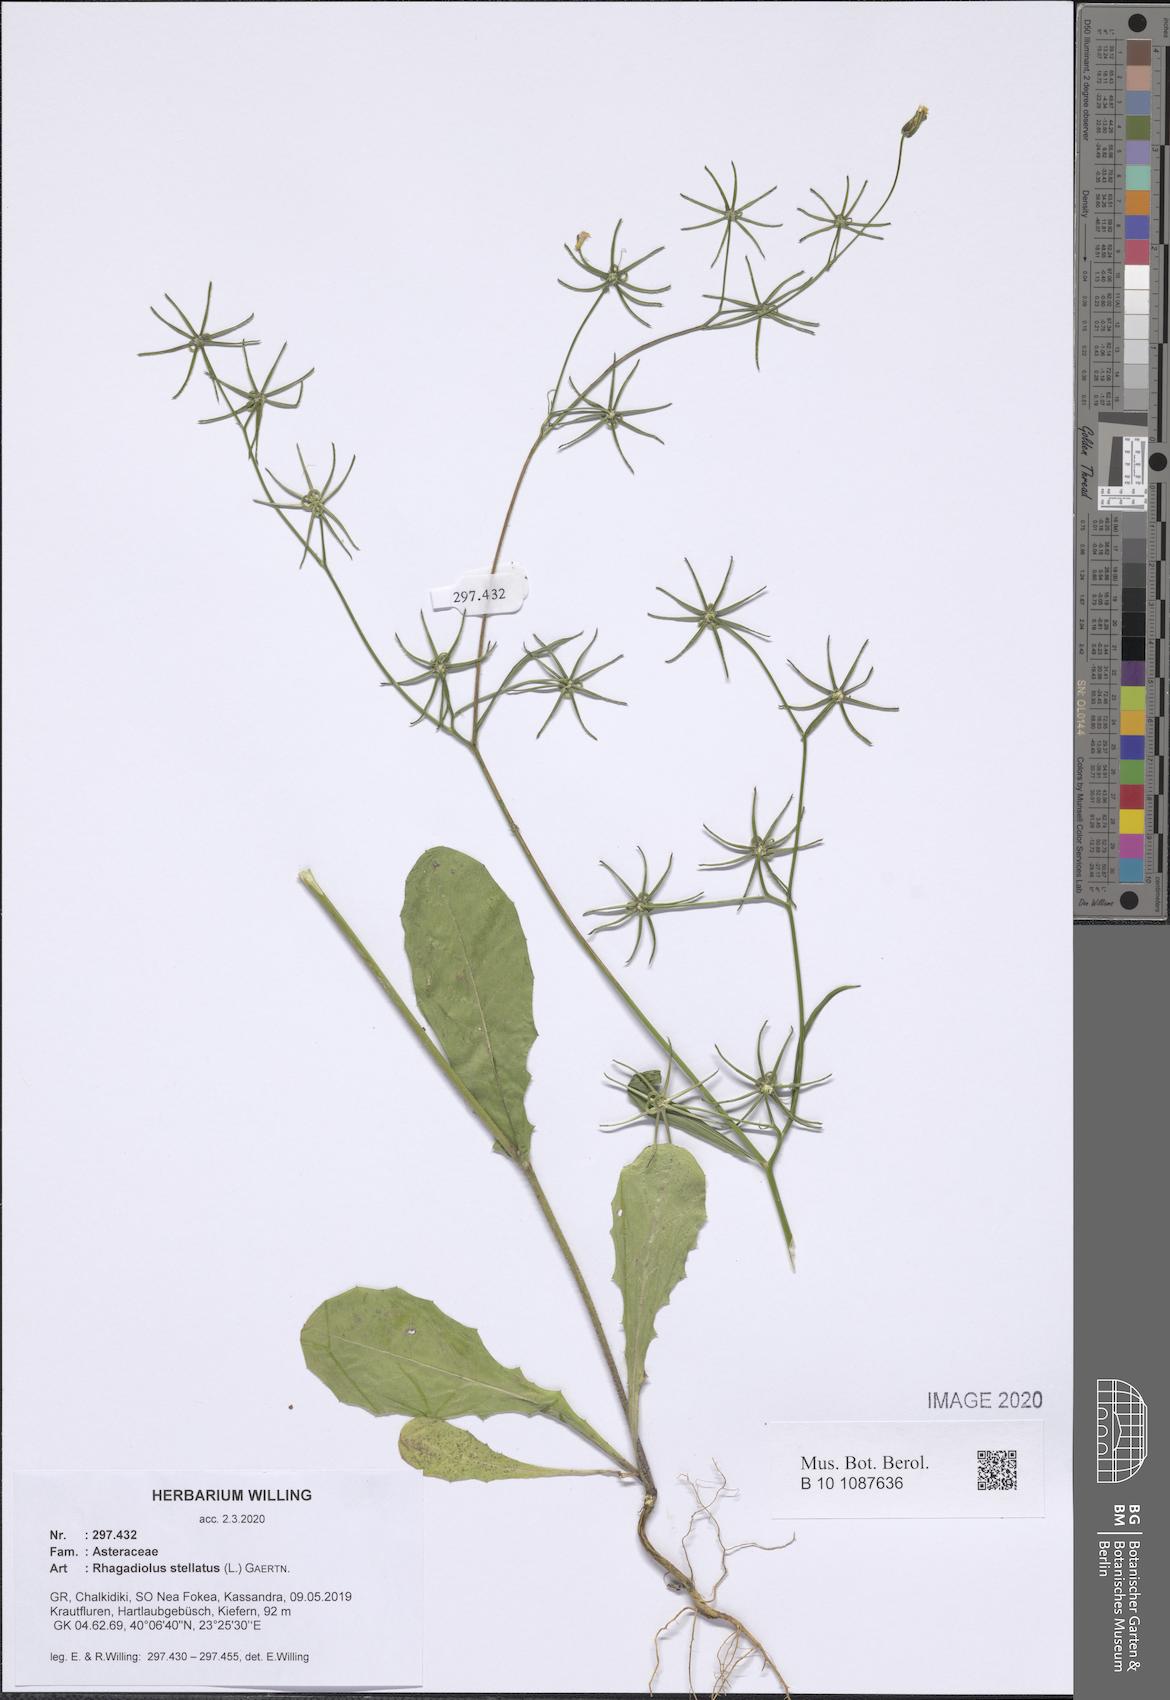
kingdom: Plantae
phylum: Tracheophyta
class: Magnoliopsida
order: Asterales
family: Asteraceae
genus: Rhagadiolus
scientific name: Rhagadiolus stellatus
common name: Star hawkbit
